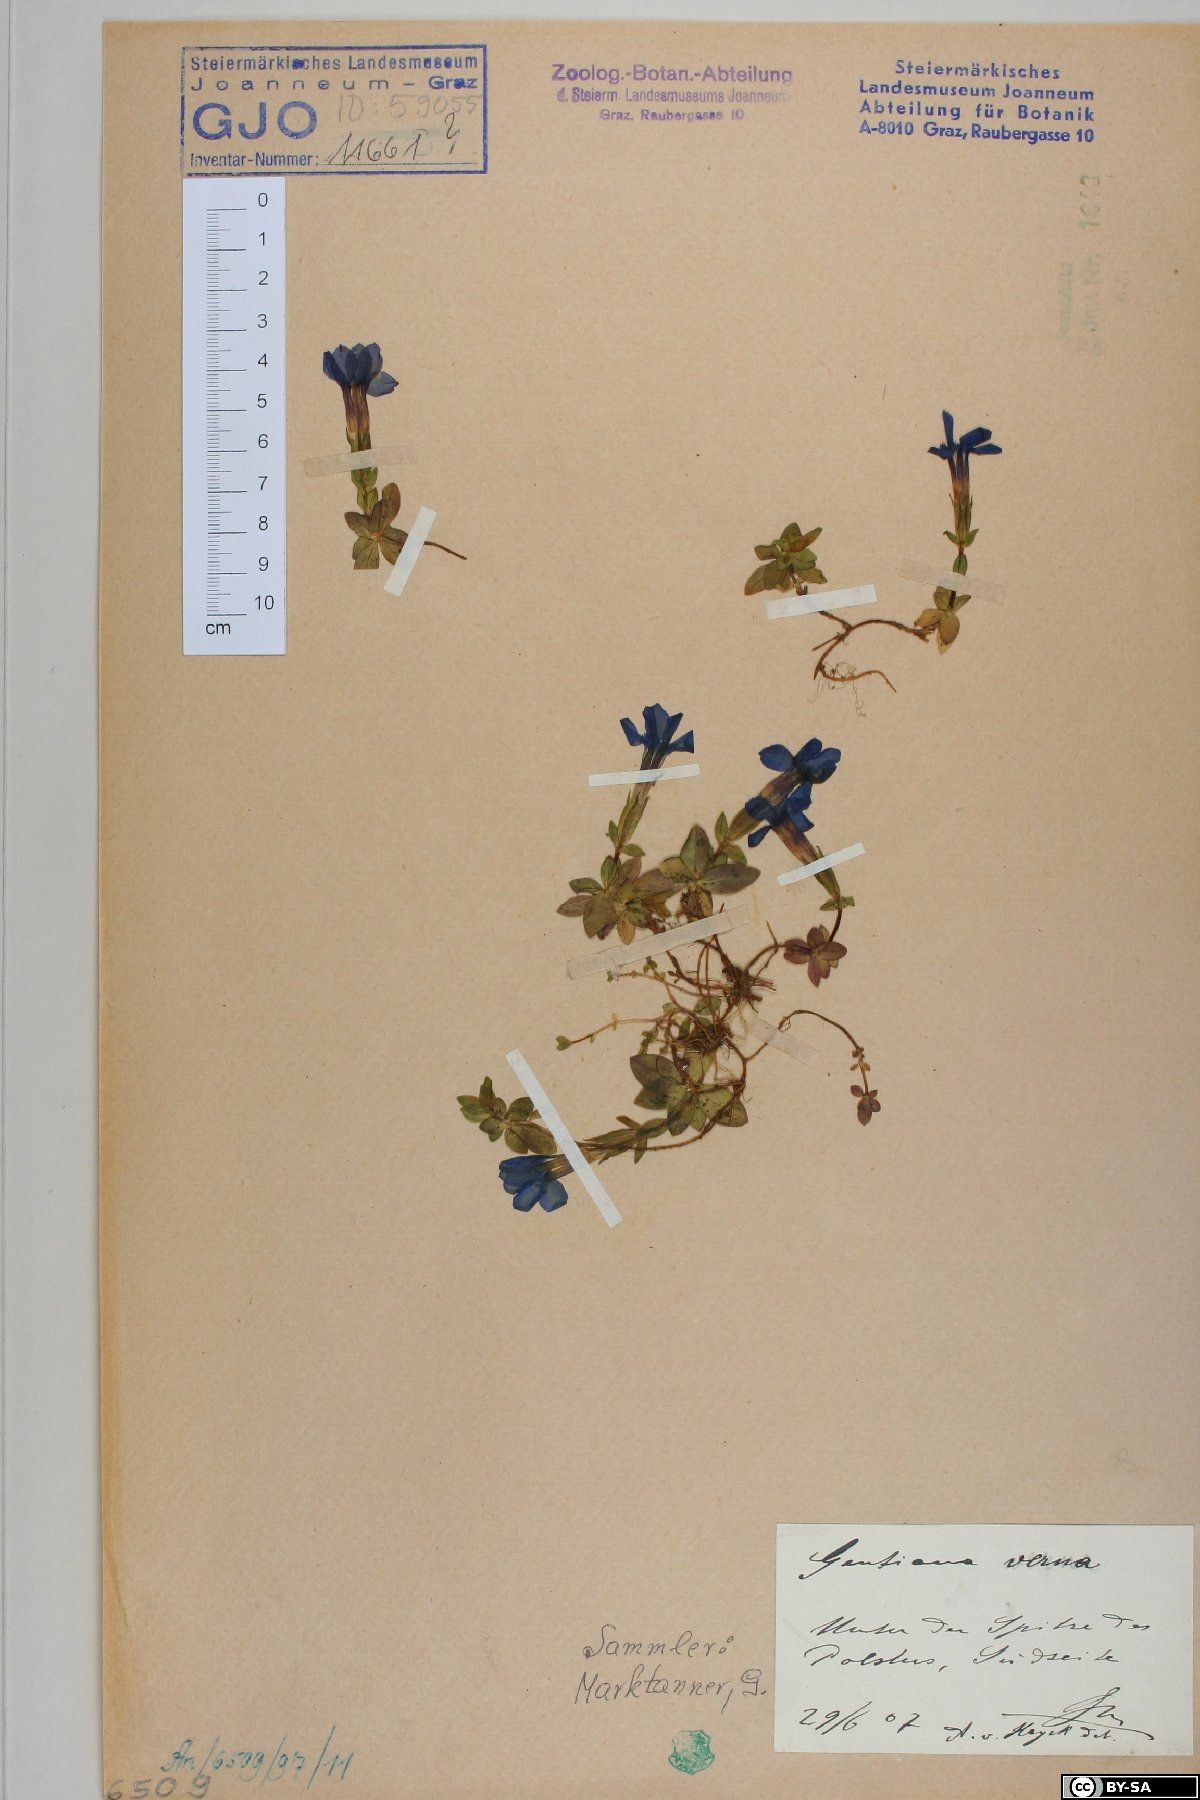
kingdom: Plantae
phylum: Tracheophyta
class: Magnoliopsida
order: Gentianales
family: Gentianaceae
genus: Gentiana
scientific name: Gentiana verna
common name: Spring gentian
